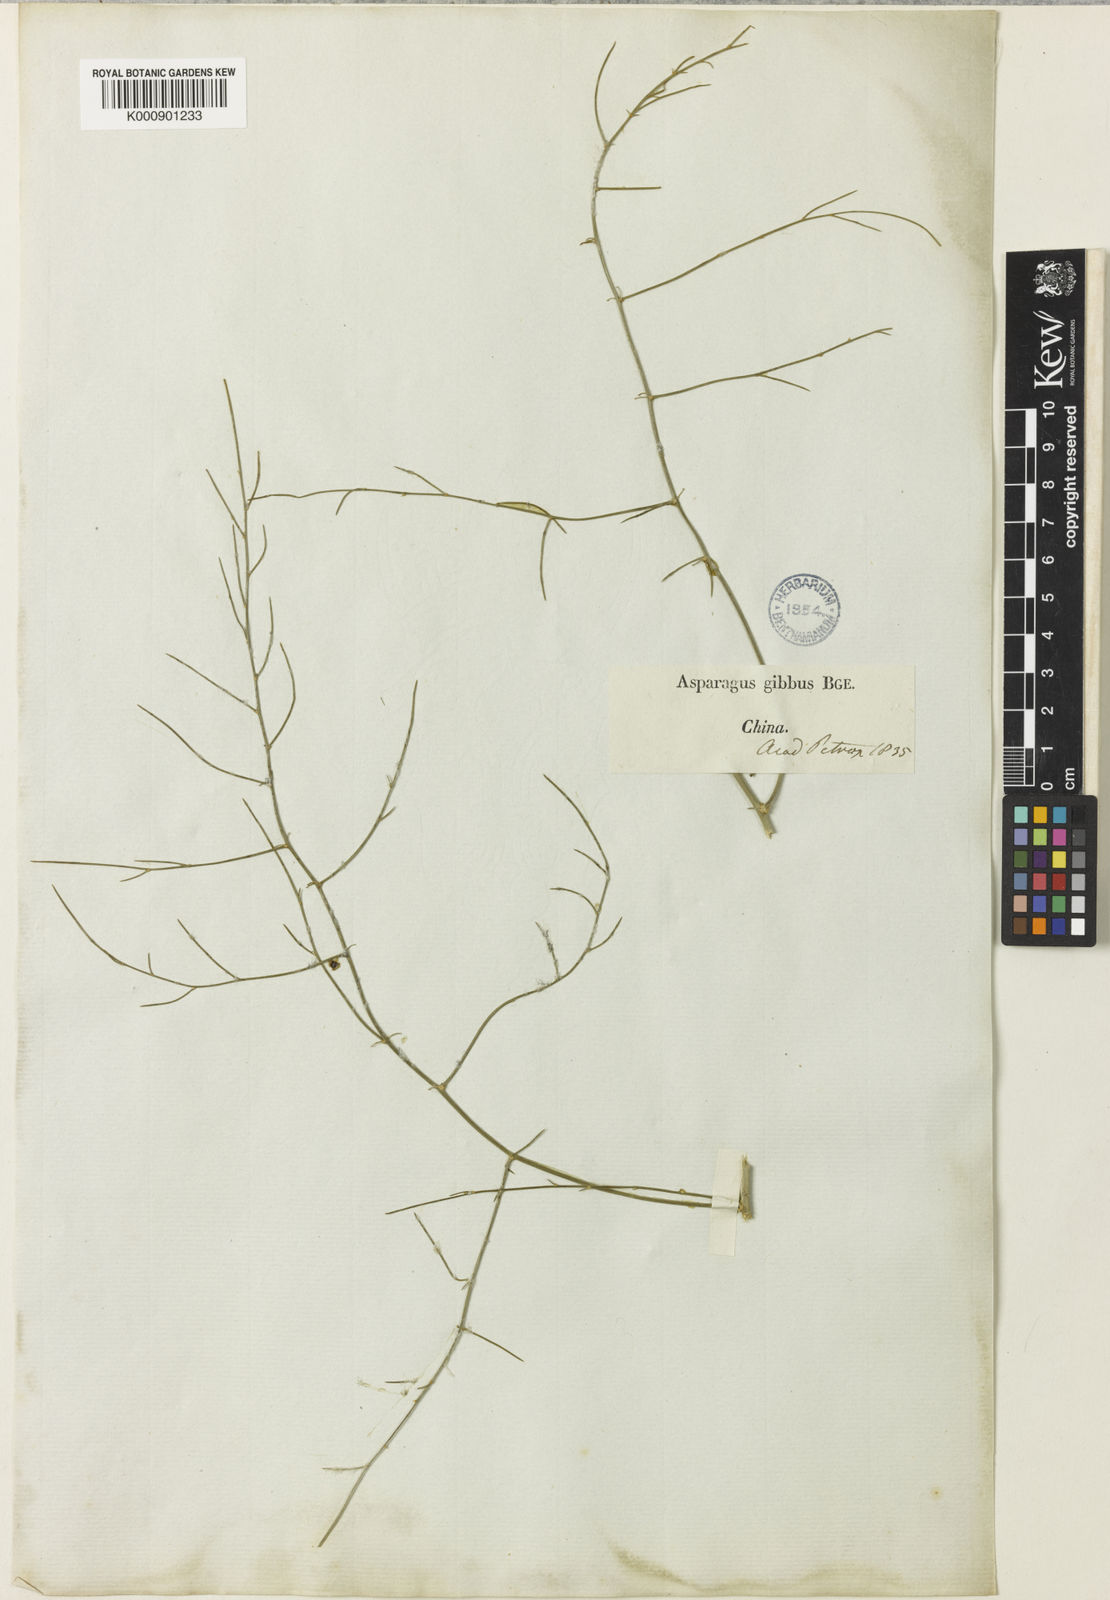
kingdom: Plantae
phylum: Tracheophyta
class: Liliopsida
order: Asparagales
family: Asparagaceae
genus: Asparagus
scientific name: Asparagus dauricus
